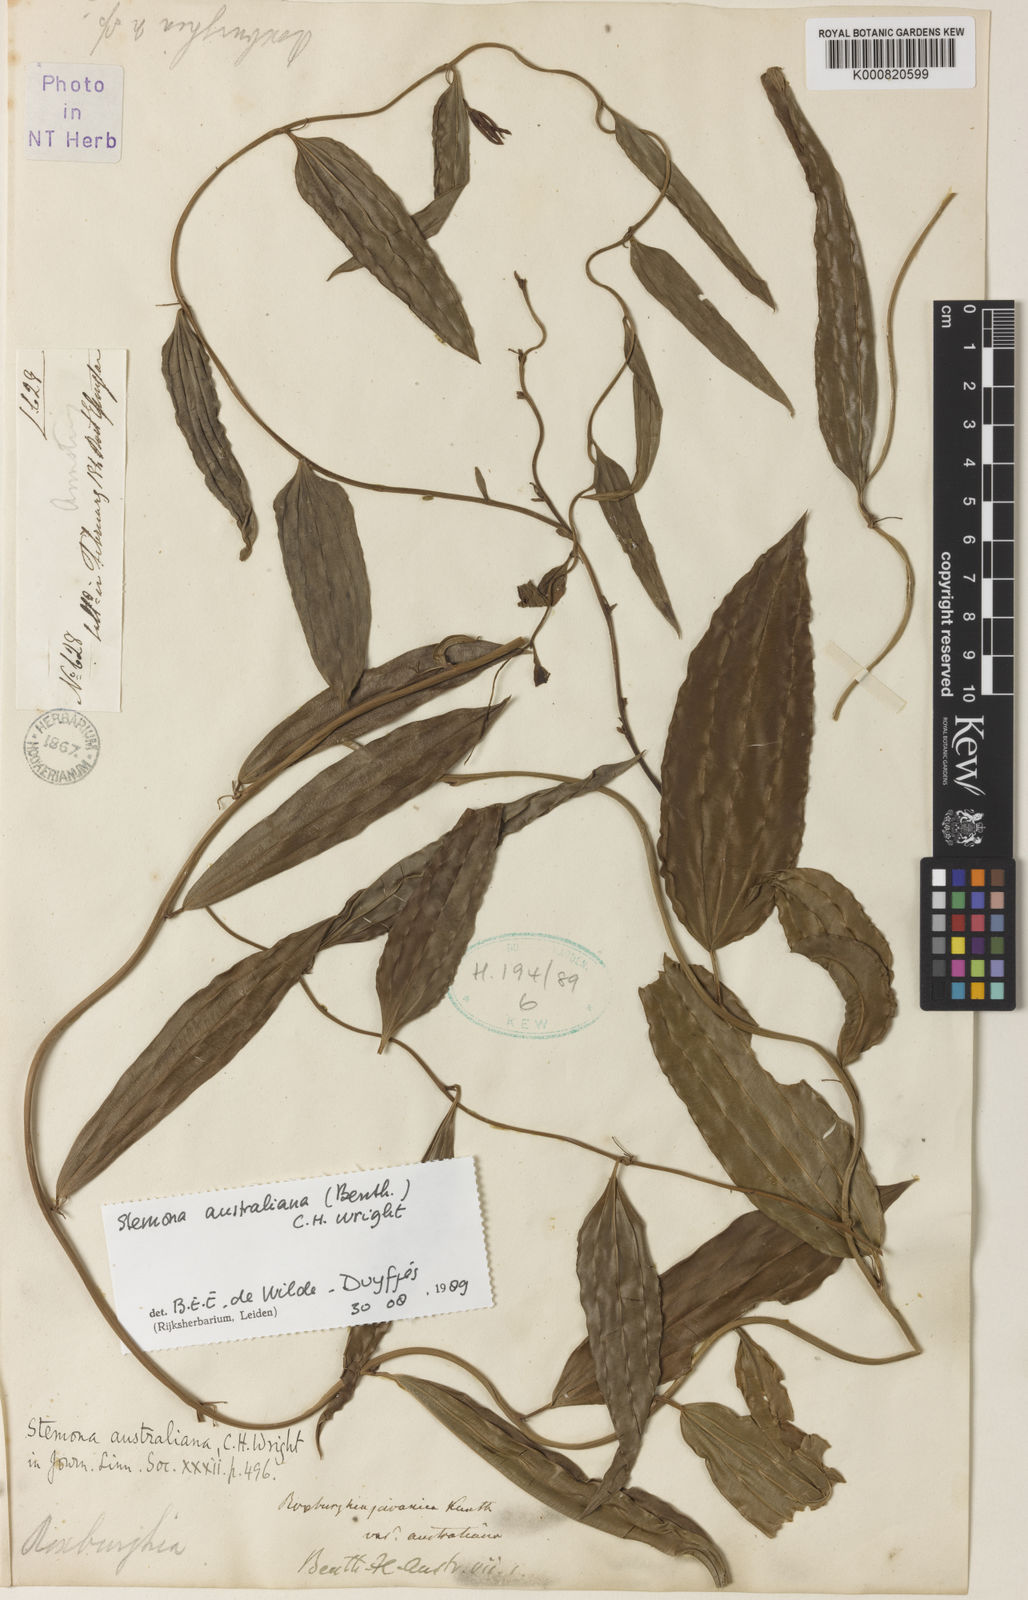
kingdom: Plantae
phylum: Tracheophyta
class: Liliopsida
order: Pandanales
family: Stemonaceae
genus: Stemona
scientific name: Stemona australiana
